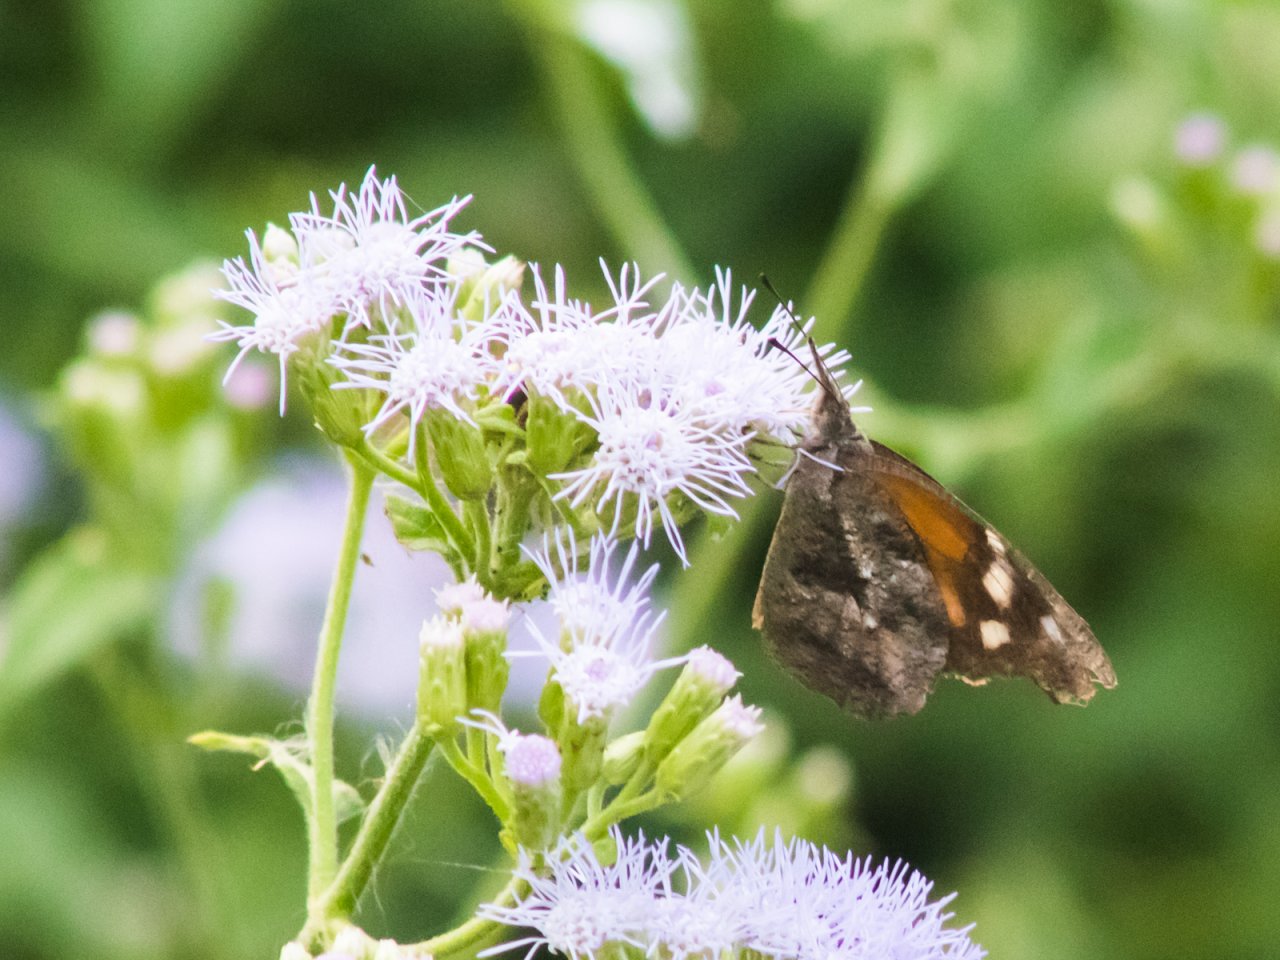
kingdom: Animalia
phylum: Arthropoda
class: Insecta
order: Lepidoptera
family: Nymphalidae
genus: Libytheana
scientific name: Libytheana carinenta
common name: American Snout
